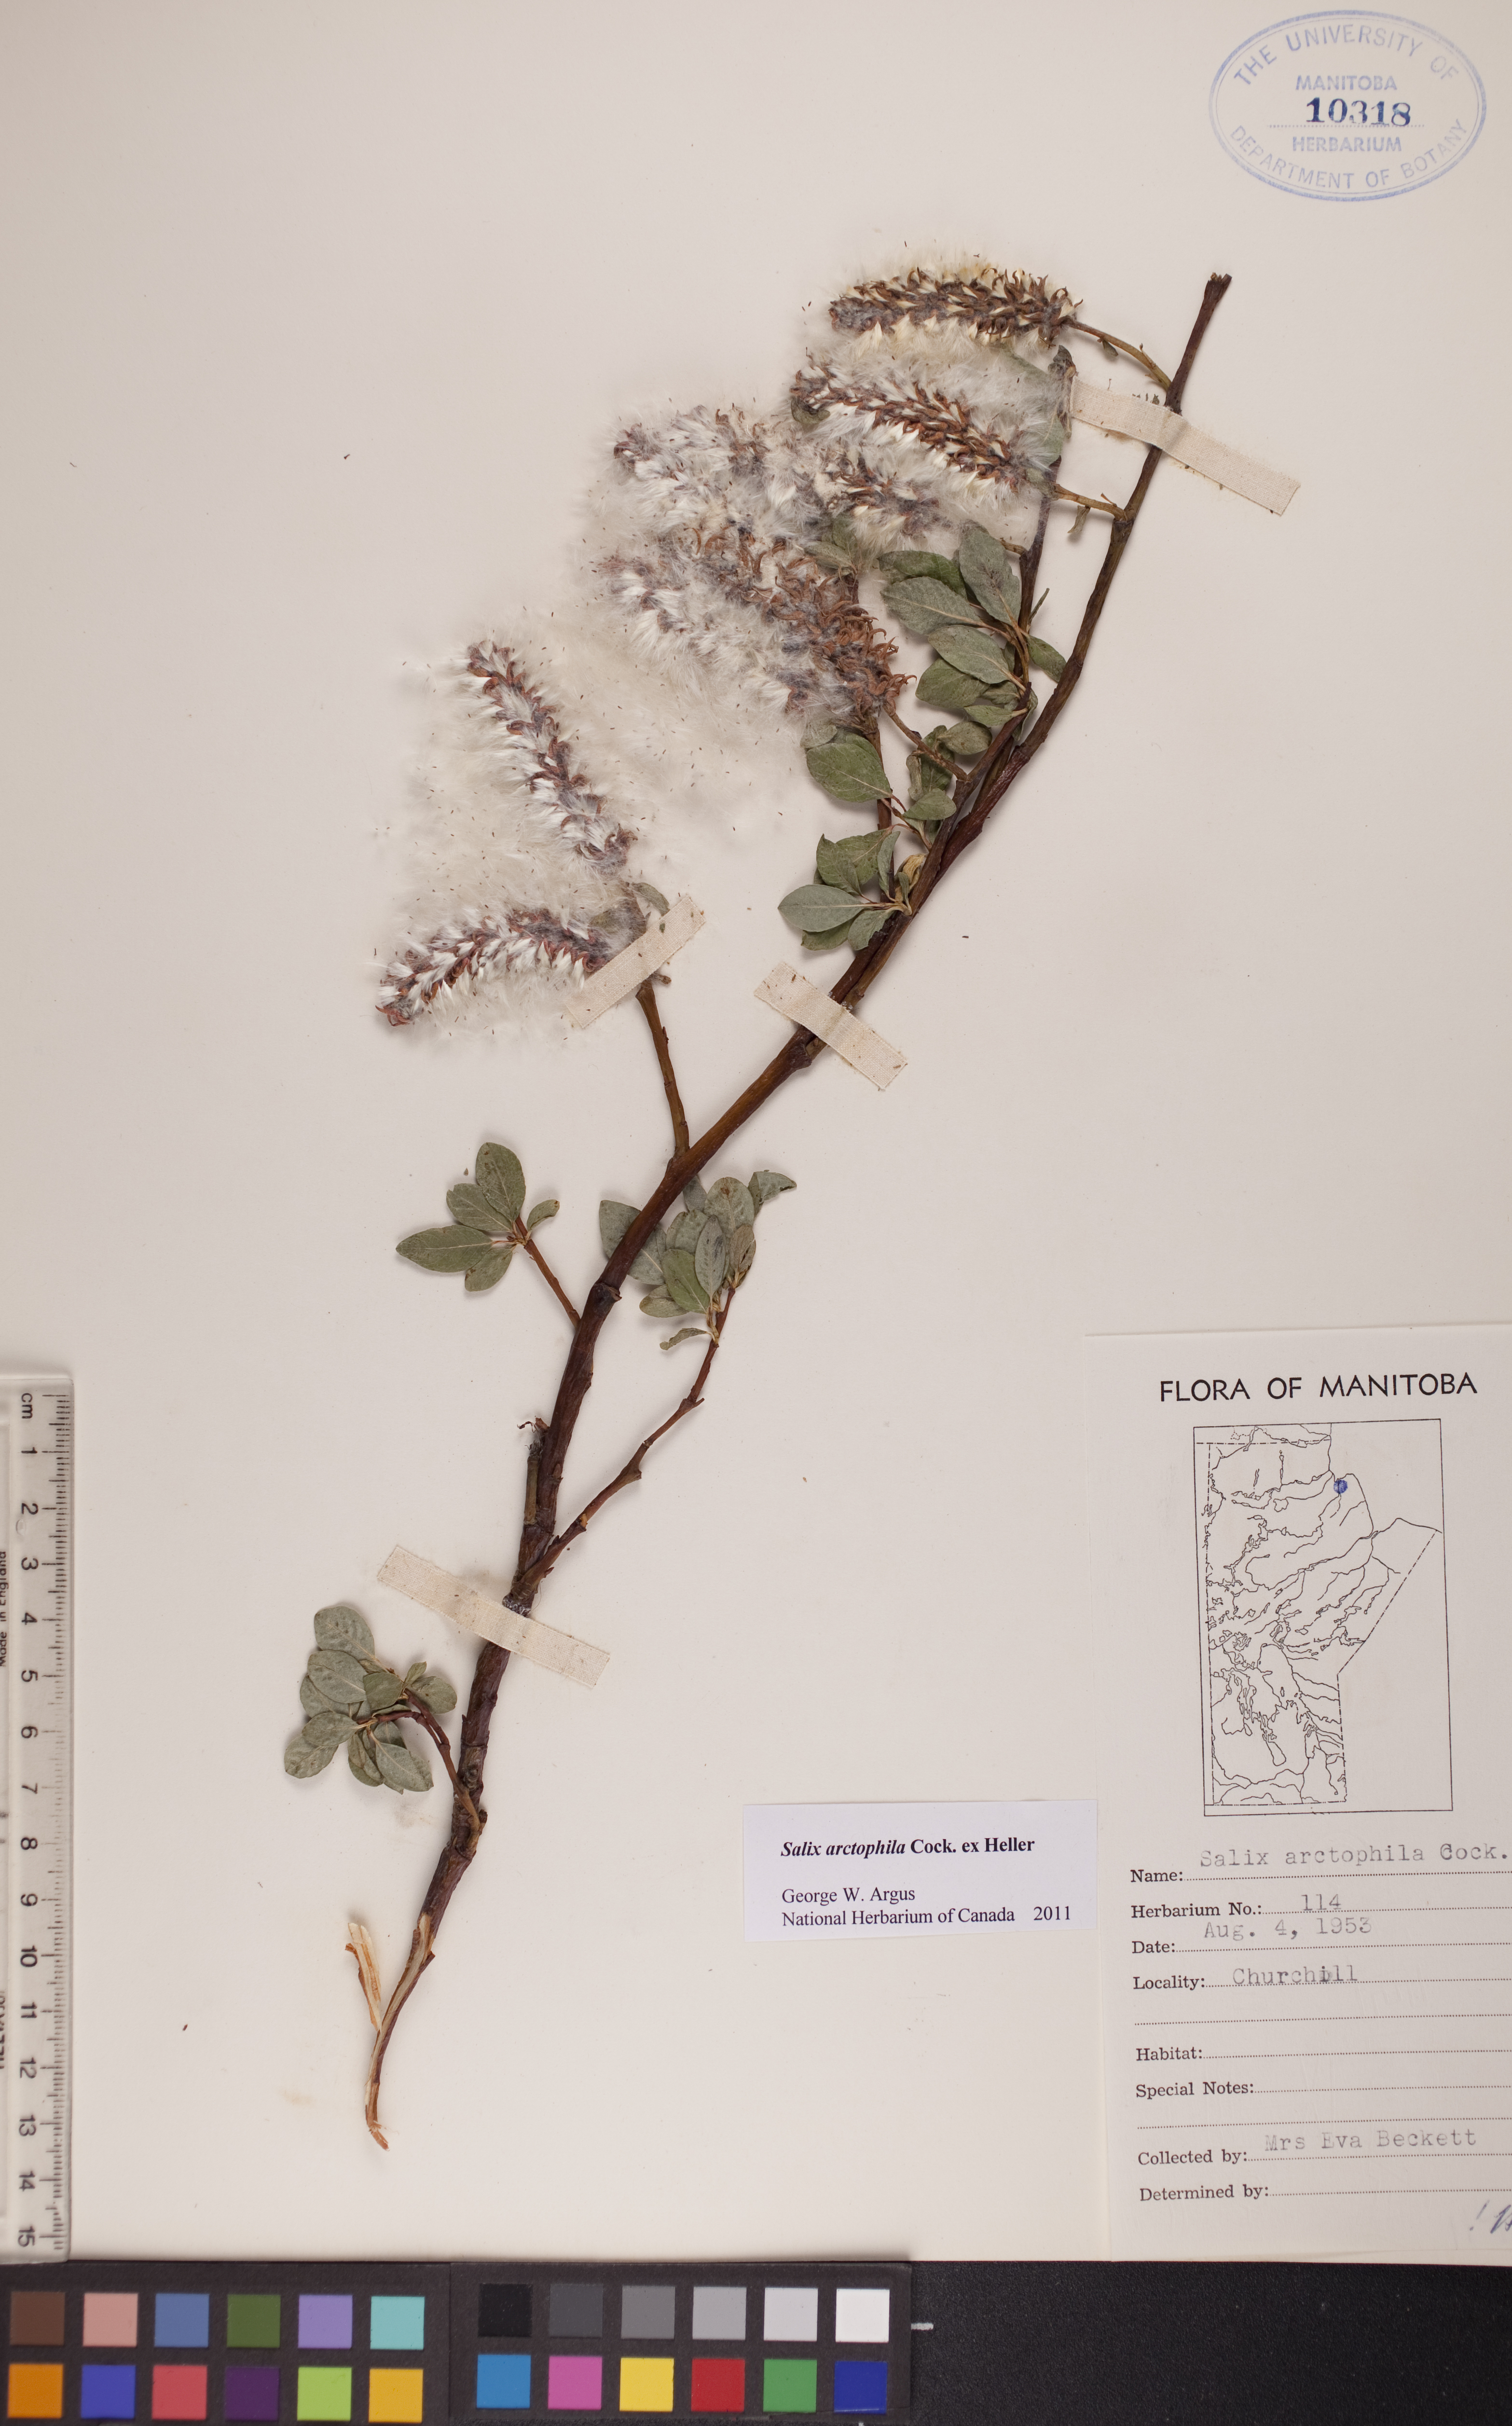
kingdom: Plantae
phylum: Tracheophyta
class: Magnoliopsida
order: Malpighiales
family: Salicaceae
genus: Salix
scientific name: Salix arctophila
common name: Greenland willow
